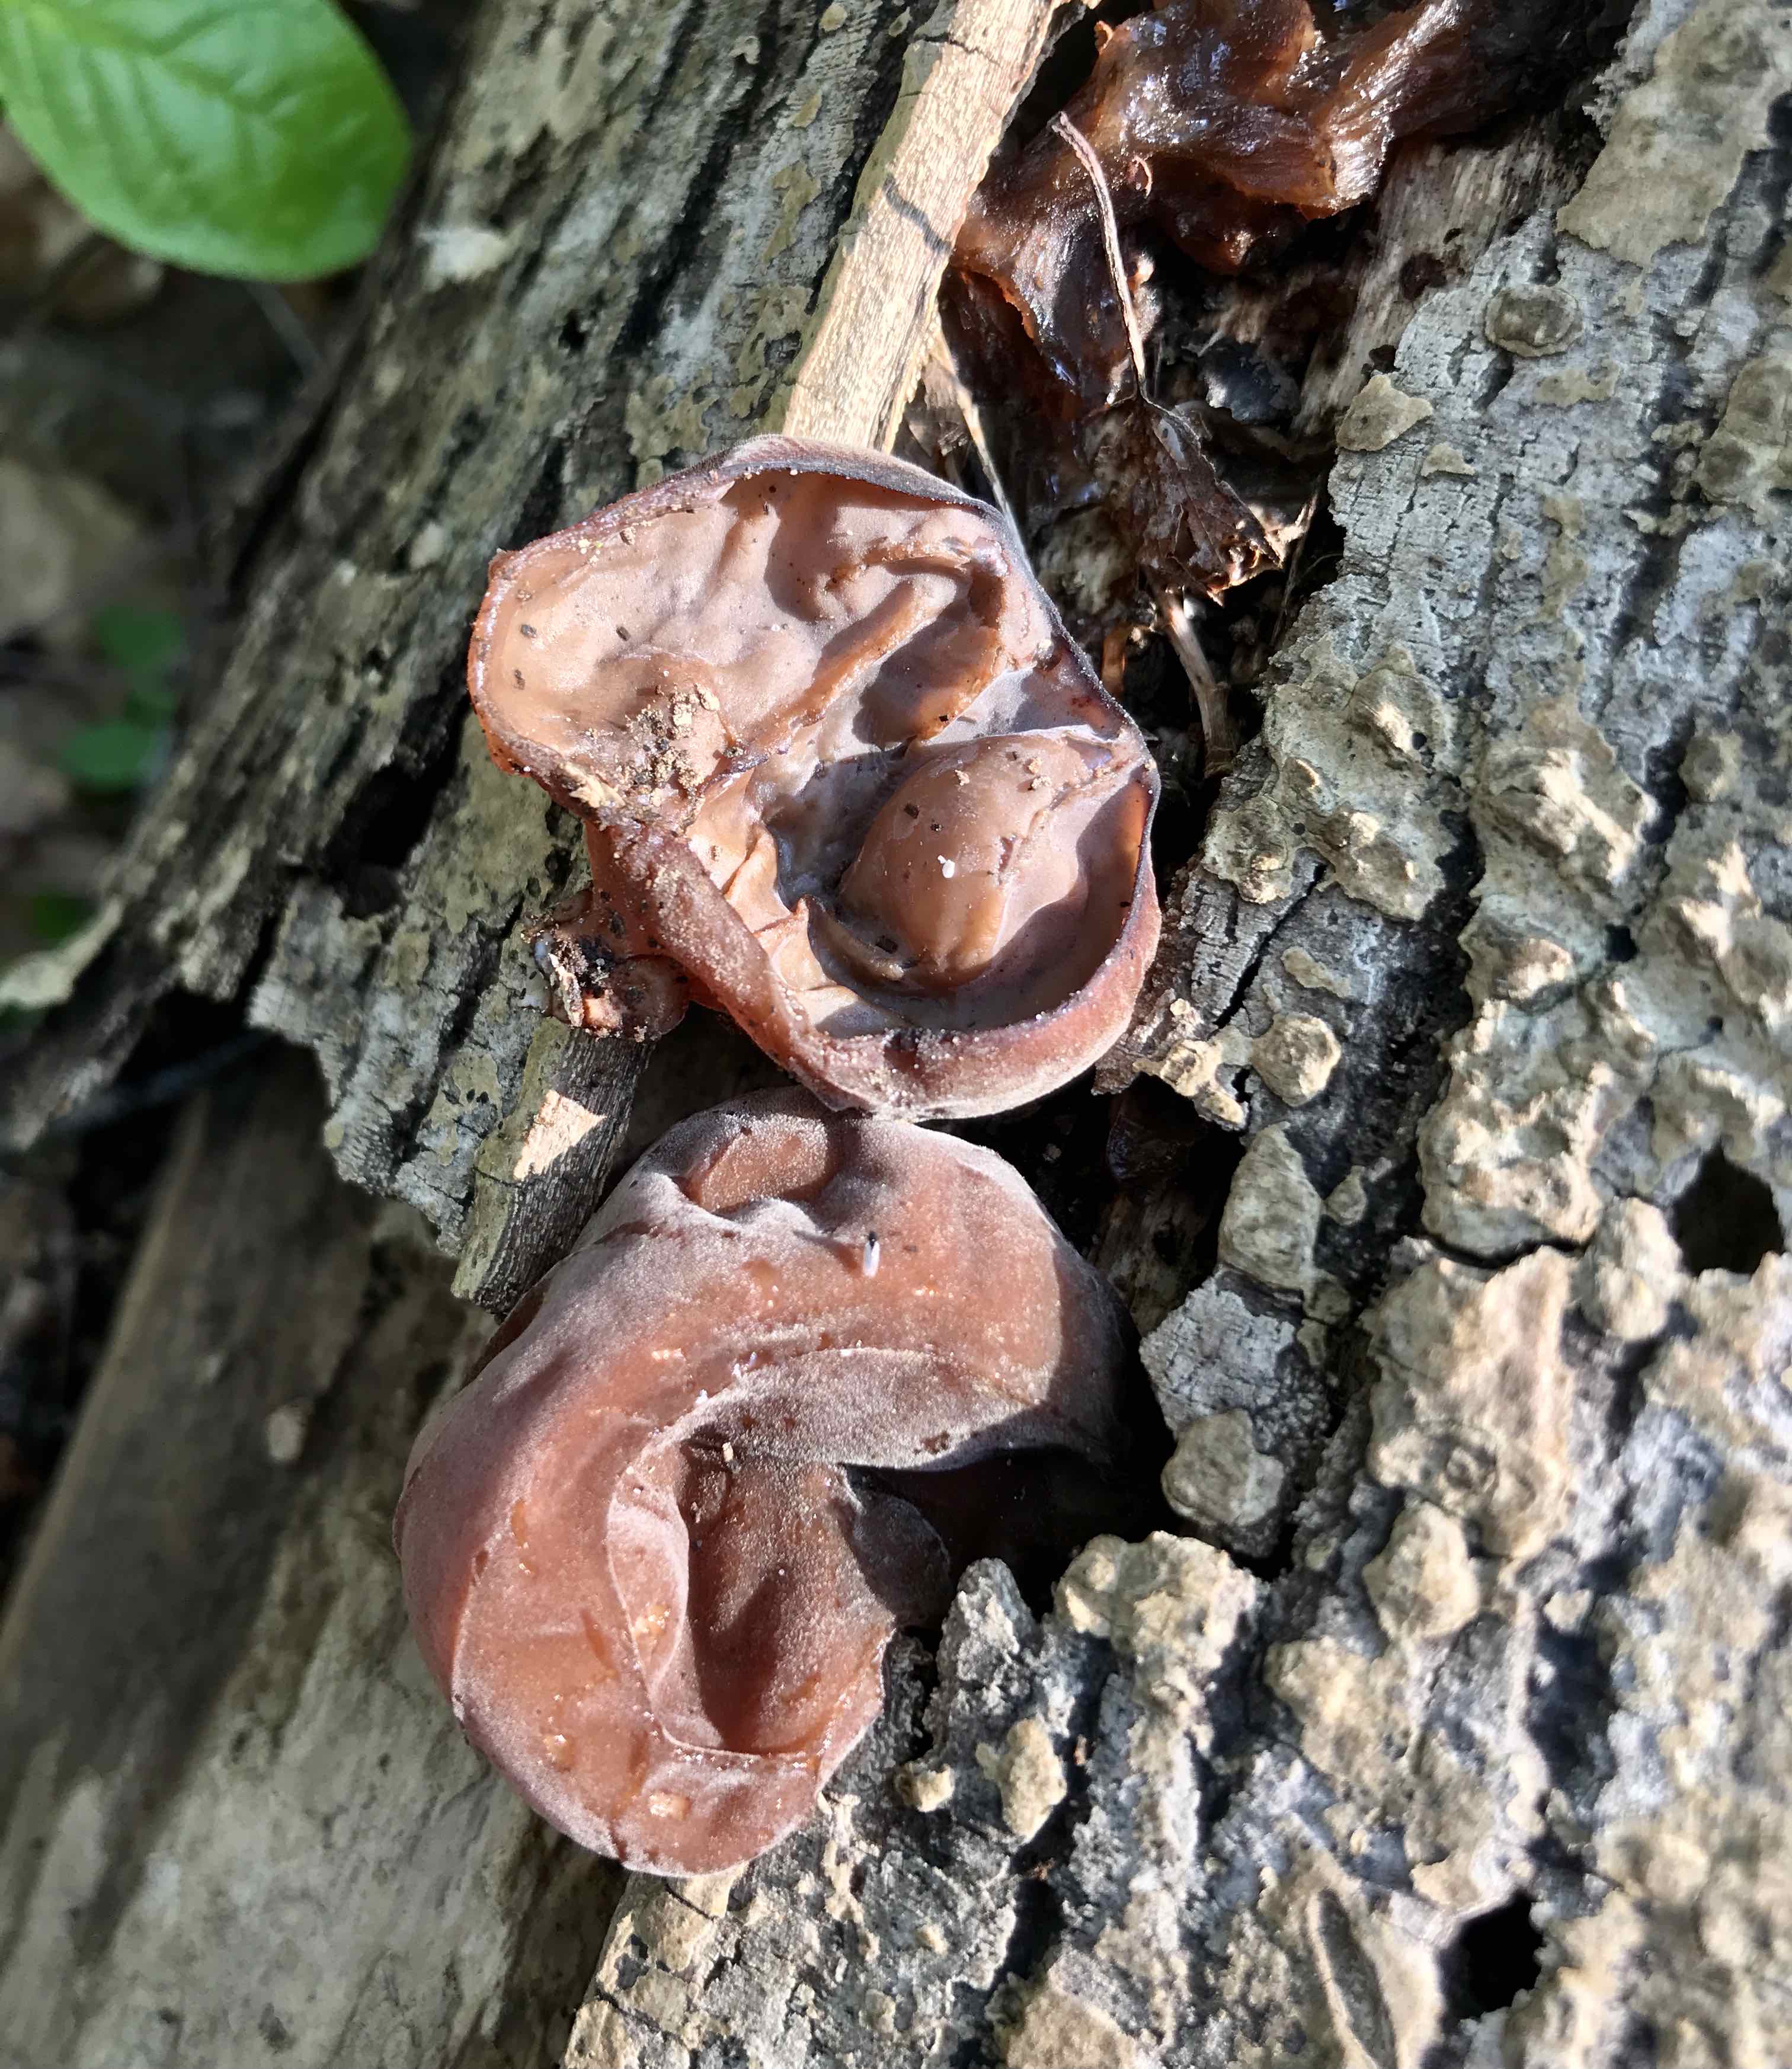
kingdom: Fungi
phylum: Basidiomycota
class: Agaricomycetes
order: Auriculariales
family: Auriculariaceae
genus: Auricularia
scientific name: Auricularia auricula-judae
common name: almindelig judasøre
